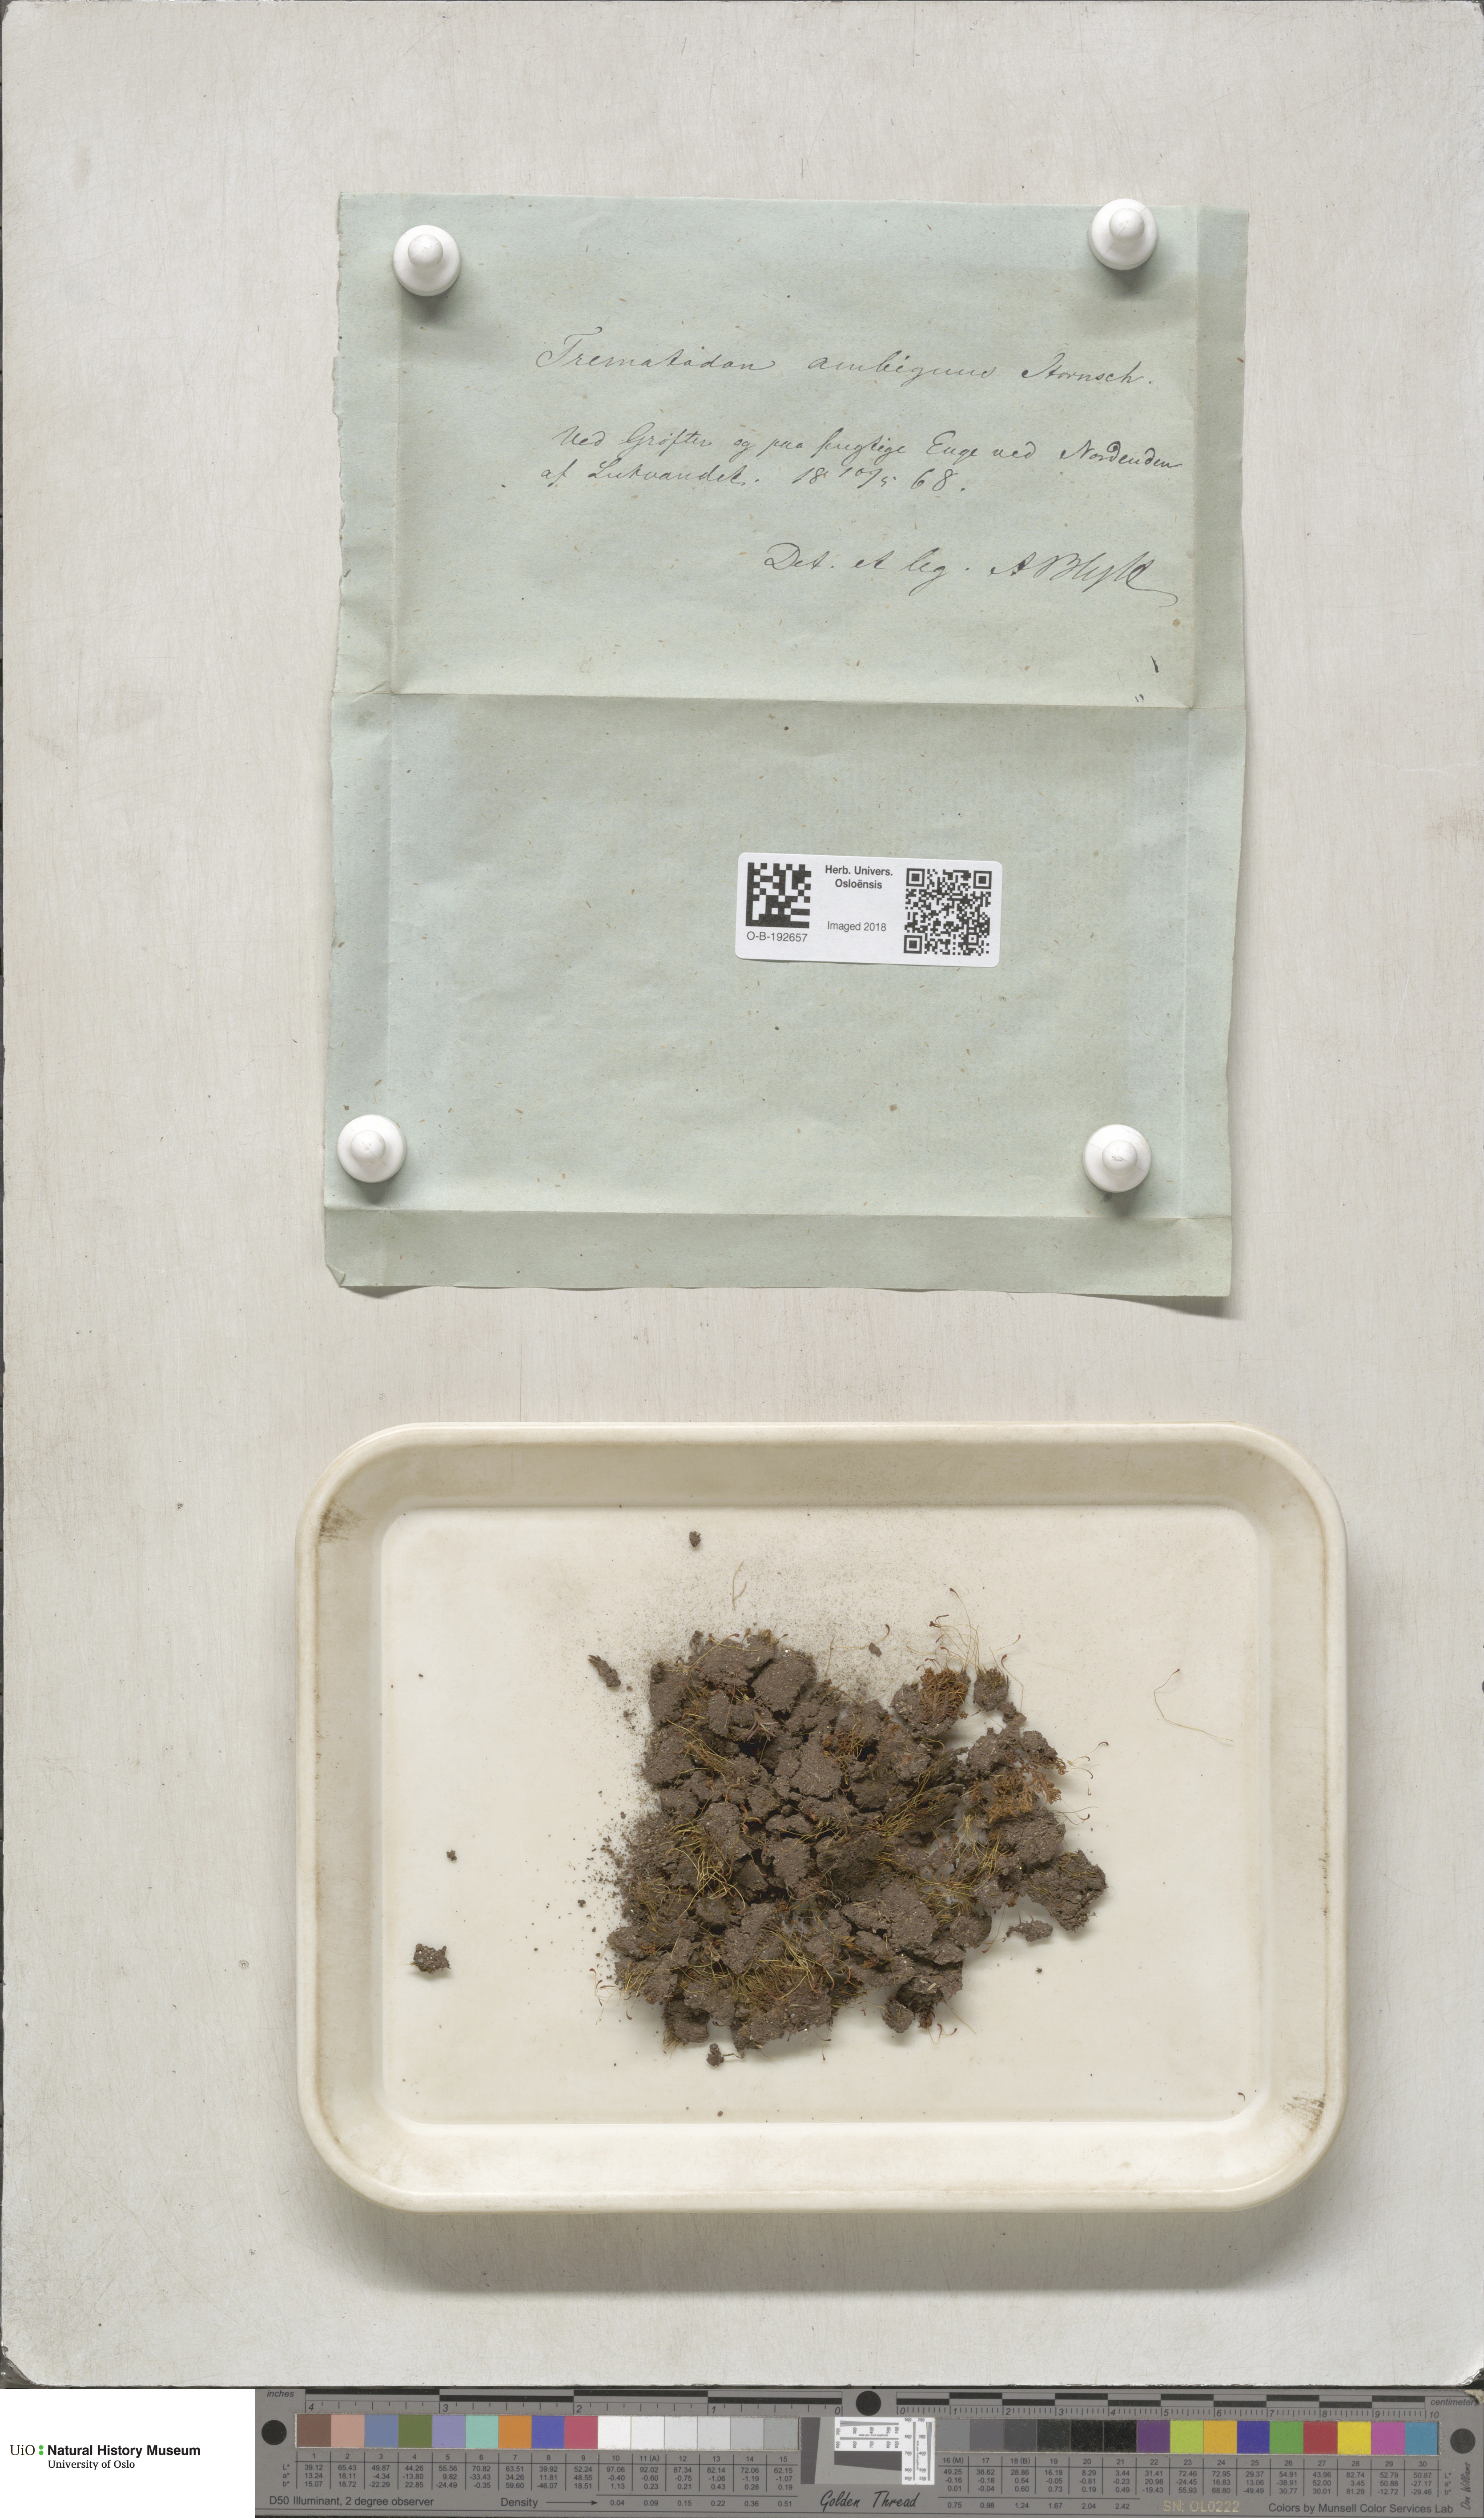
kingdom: Plantae
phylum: Bryophyta
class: Bryopsida
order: Dicranales
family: Bruchiaceae
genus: Trematodon
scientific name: Trematodon ambiguus
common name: Ambiguous long-necked moss
